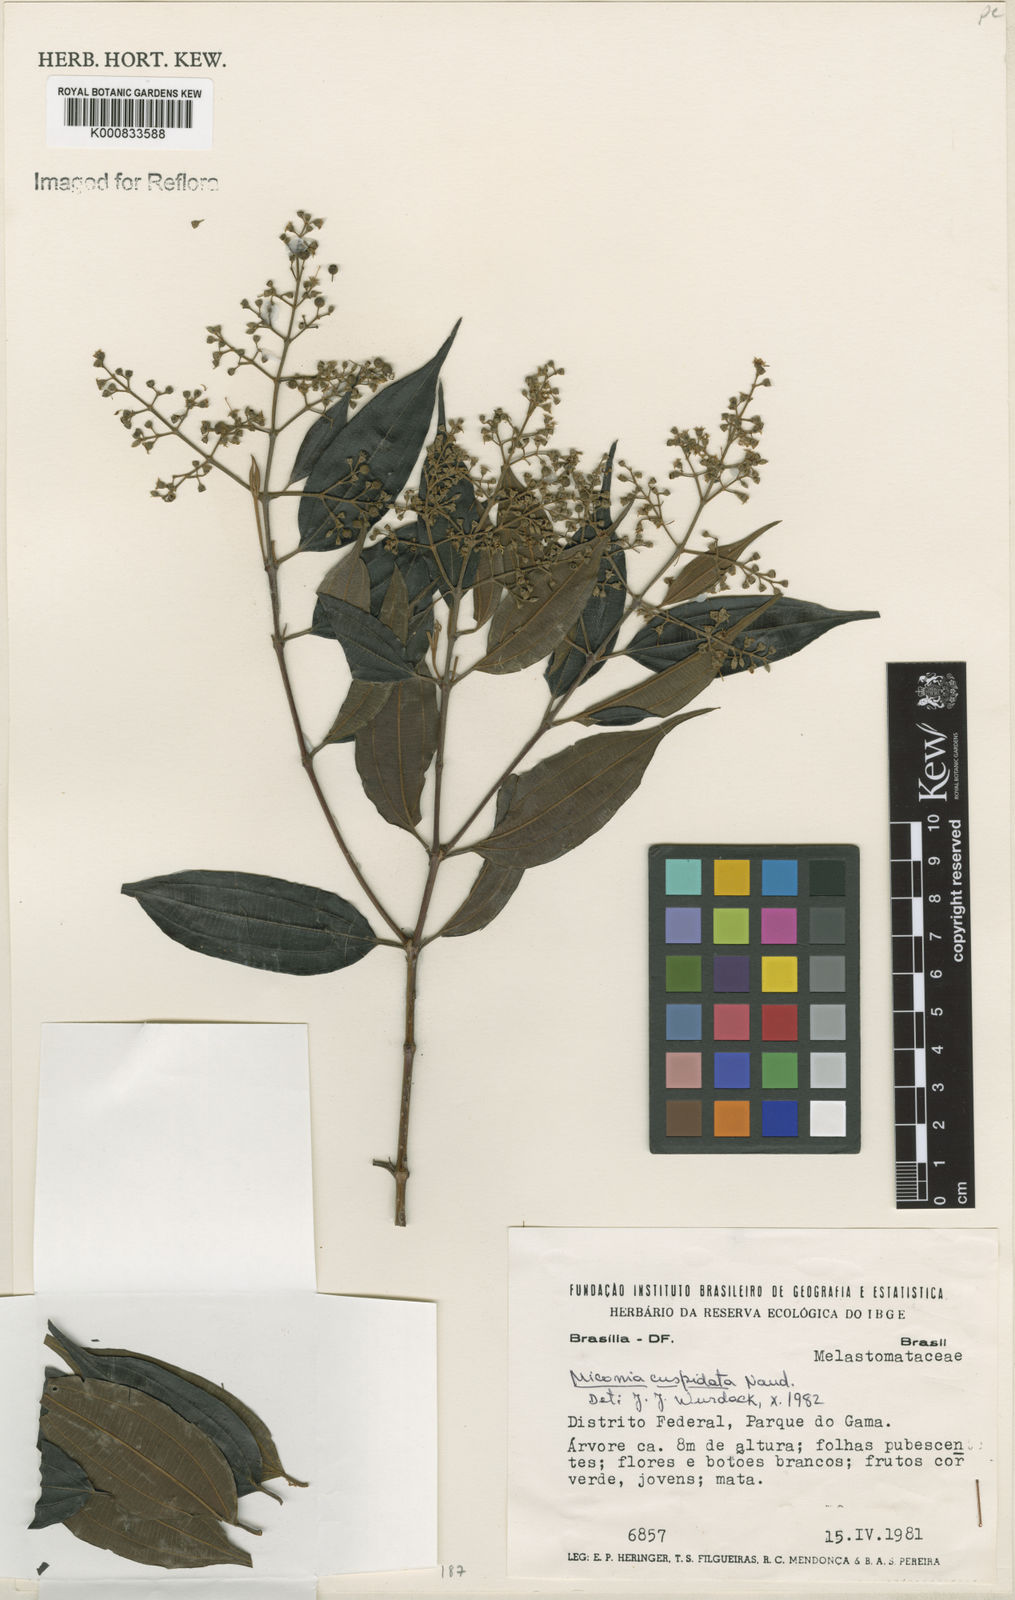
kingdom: Plantae
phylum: Tracheophyta
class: Magnoliopsida
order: Myrtales
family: Melastomataceae
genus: Miconia
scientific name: Miconia cuspidata
